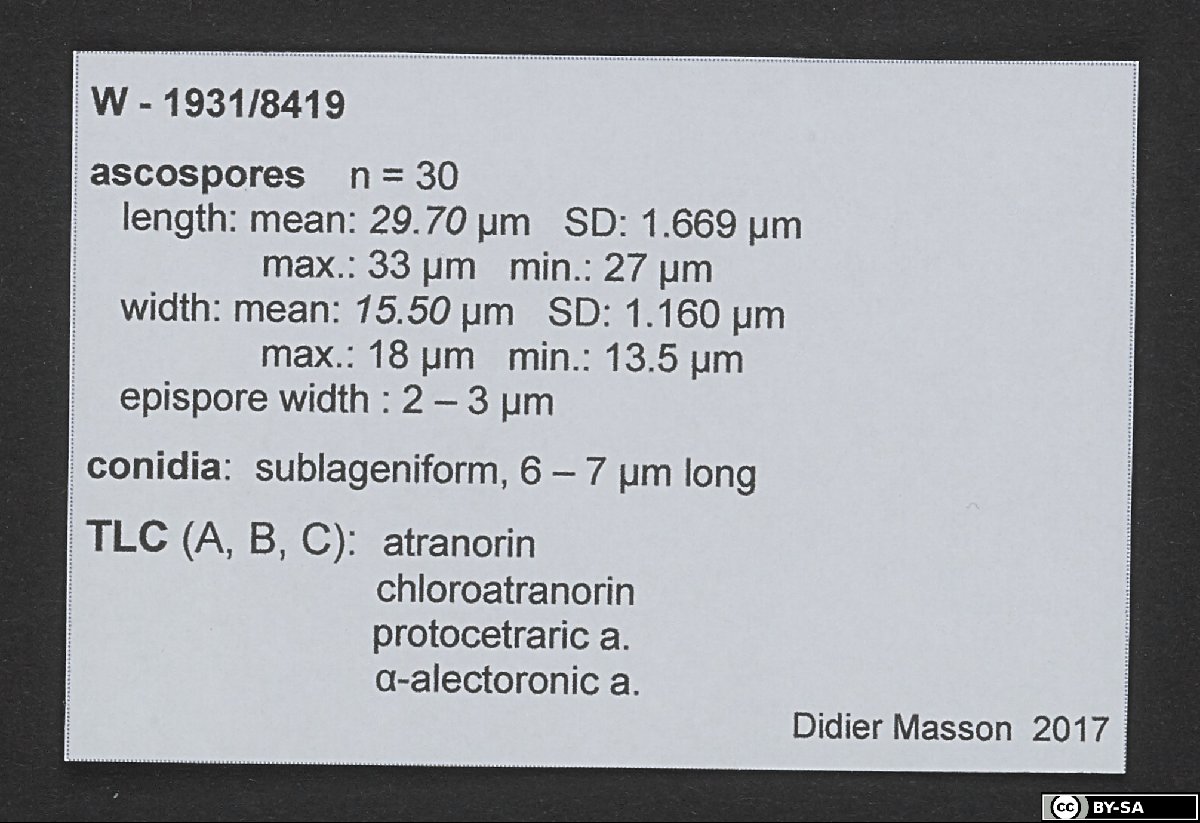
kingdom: Fungi
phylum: Ascomycota
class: Lecanoromycetes
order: Lecanorales
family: Parmeliaceae
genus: Parmotrema
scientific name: Parmotrema amaniense
